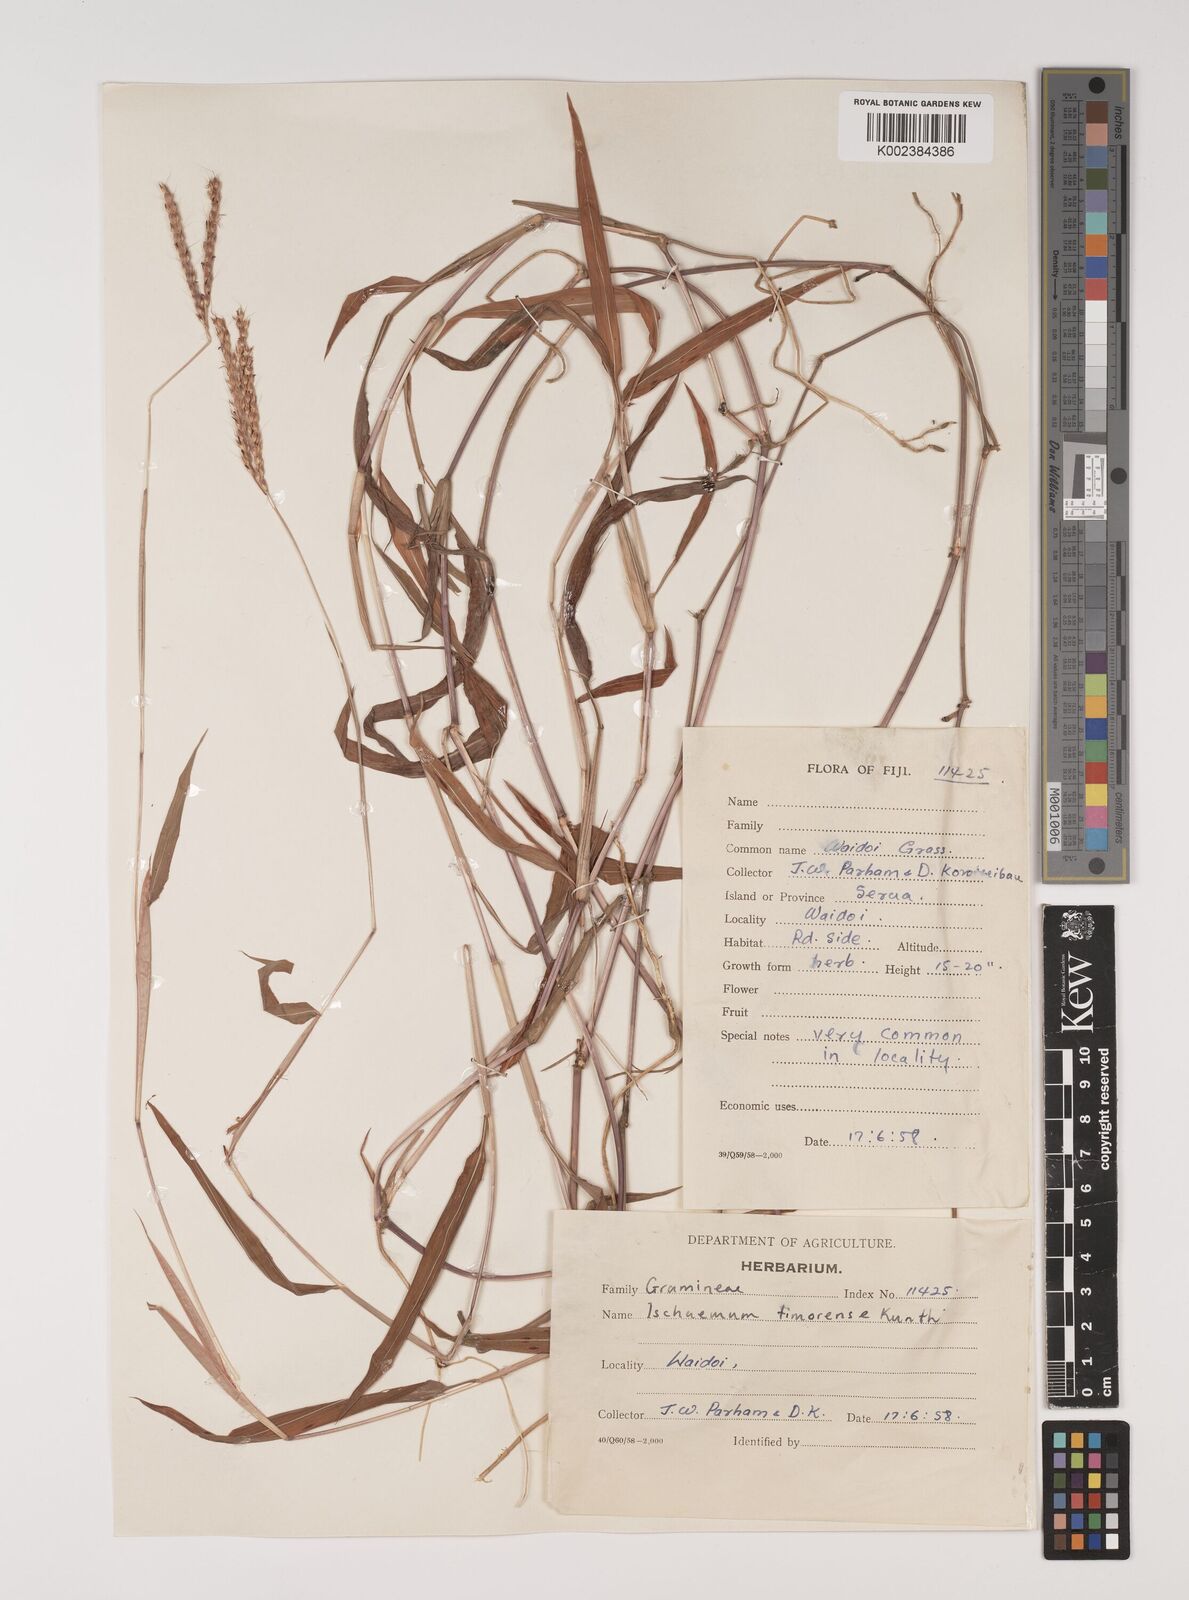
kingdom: Plantae
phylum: Tracheophyta
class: Liliopsida
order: Poales
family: Poaceae
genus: Ischaemum
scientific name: Ischaemum timorense
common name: Stalkleaf murainagrass
